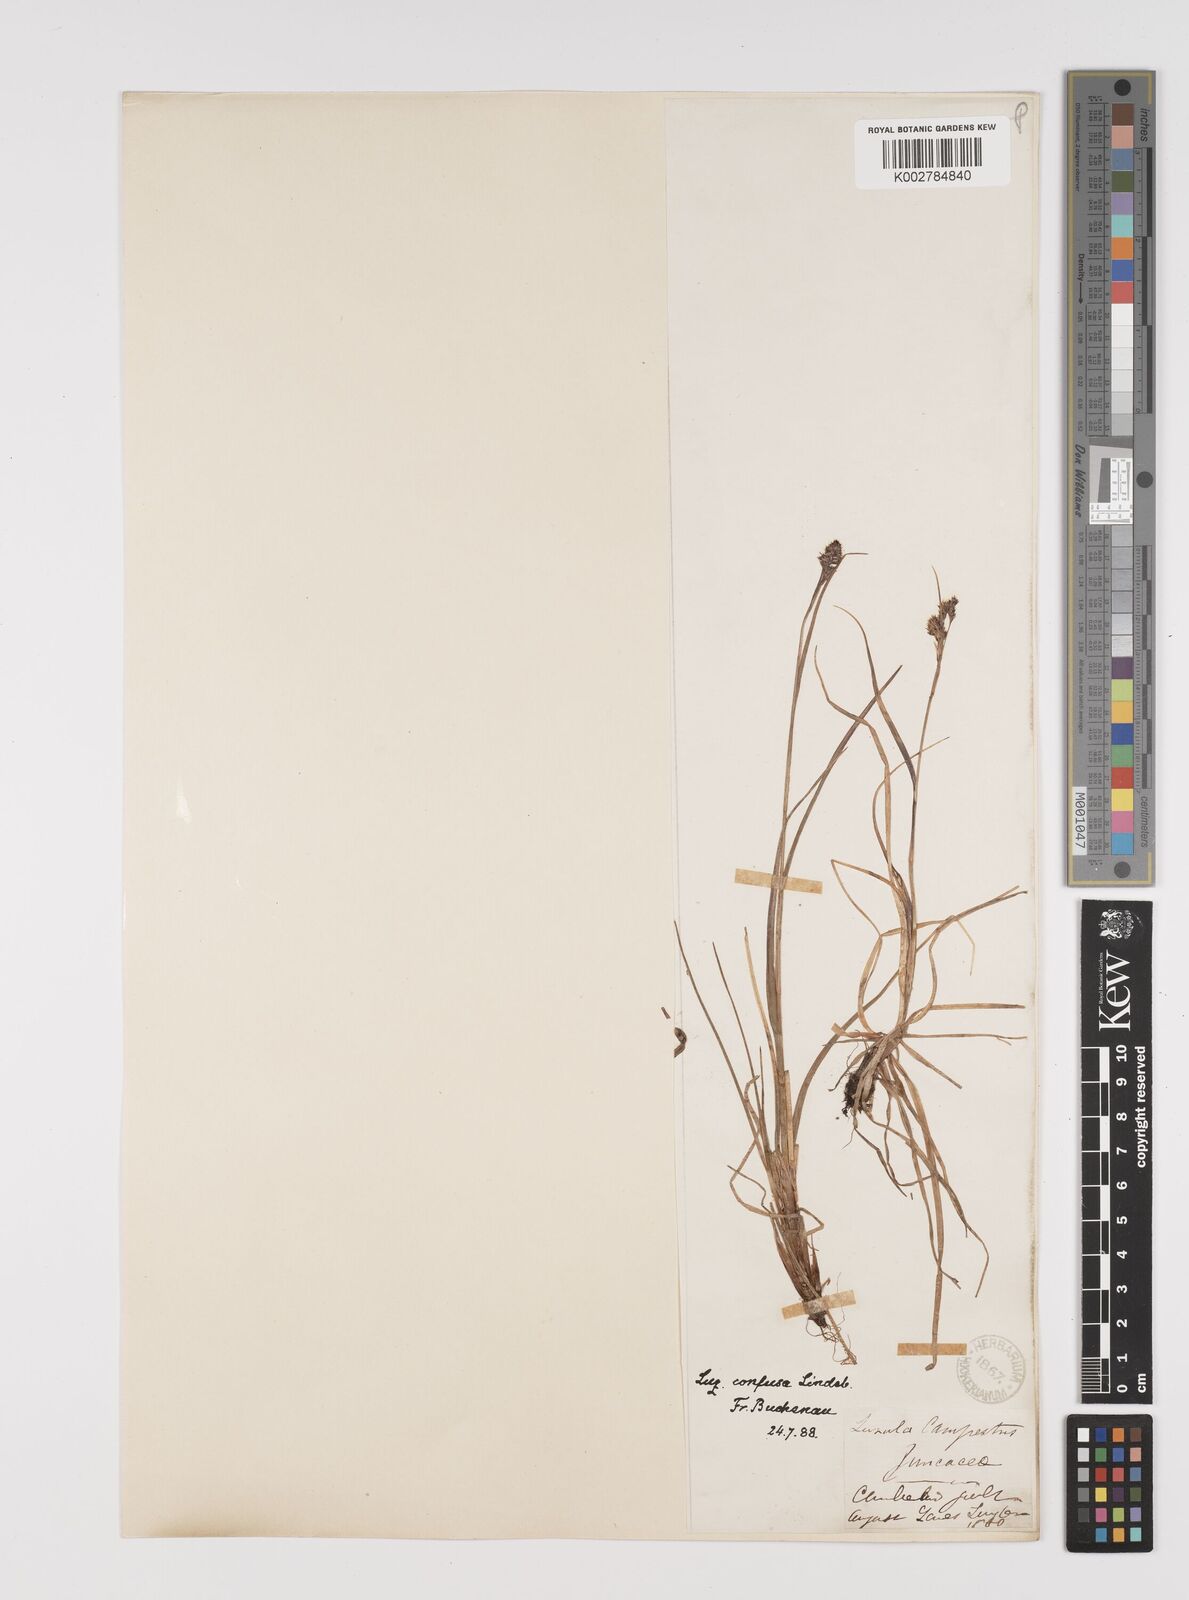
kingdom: Plantae
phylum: Tracheophyta
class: Liliopsida
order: Poales
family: Juncaceae
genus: Luzula
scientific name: Luzula confusa
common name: Northern wood rush
